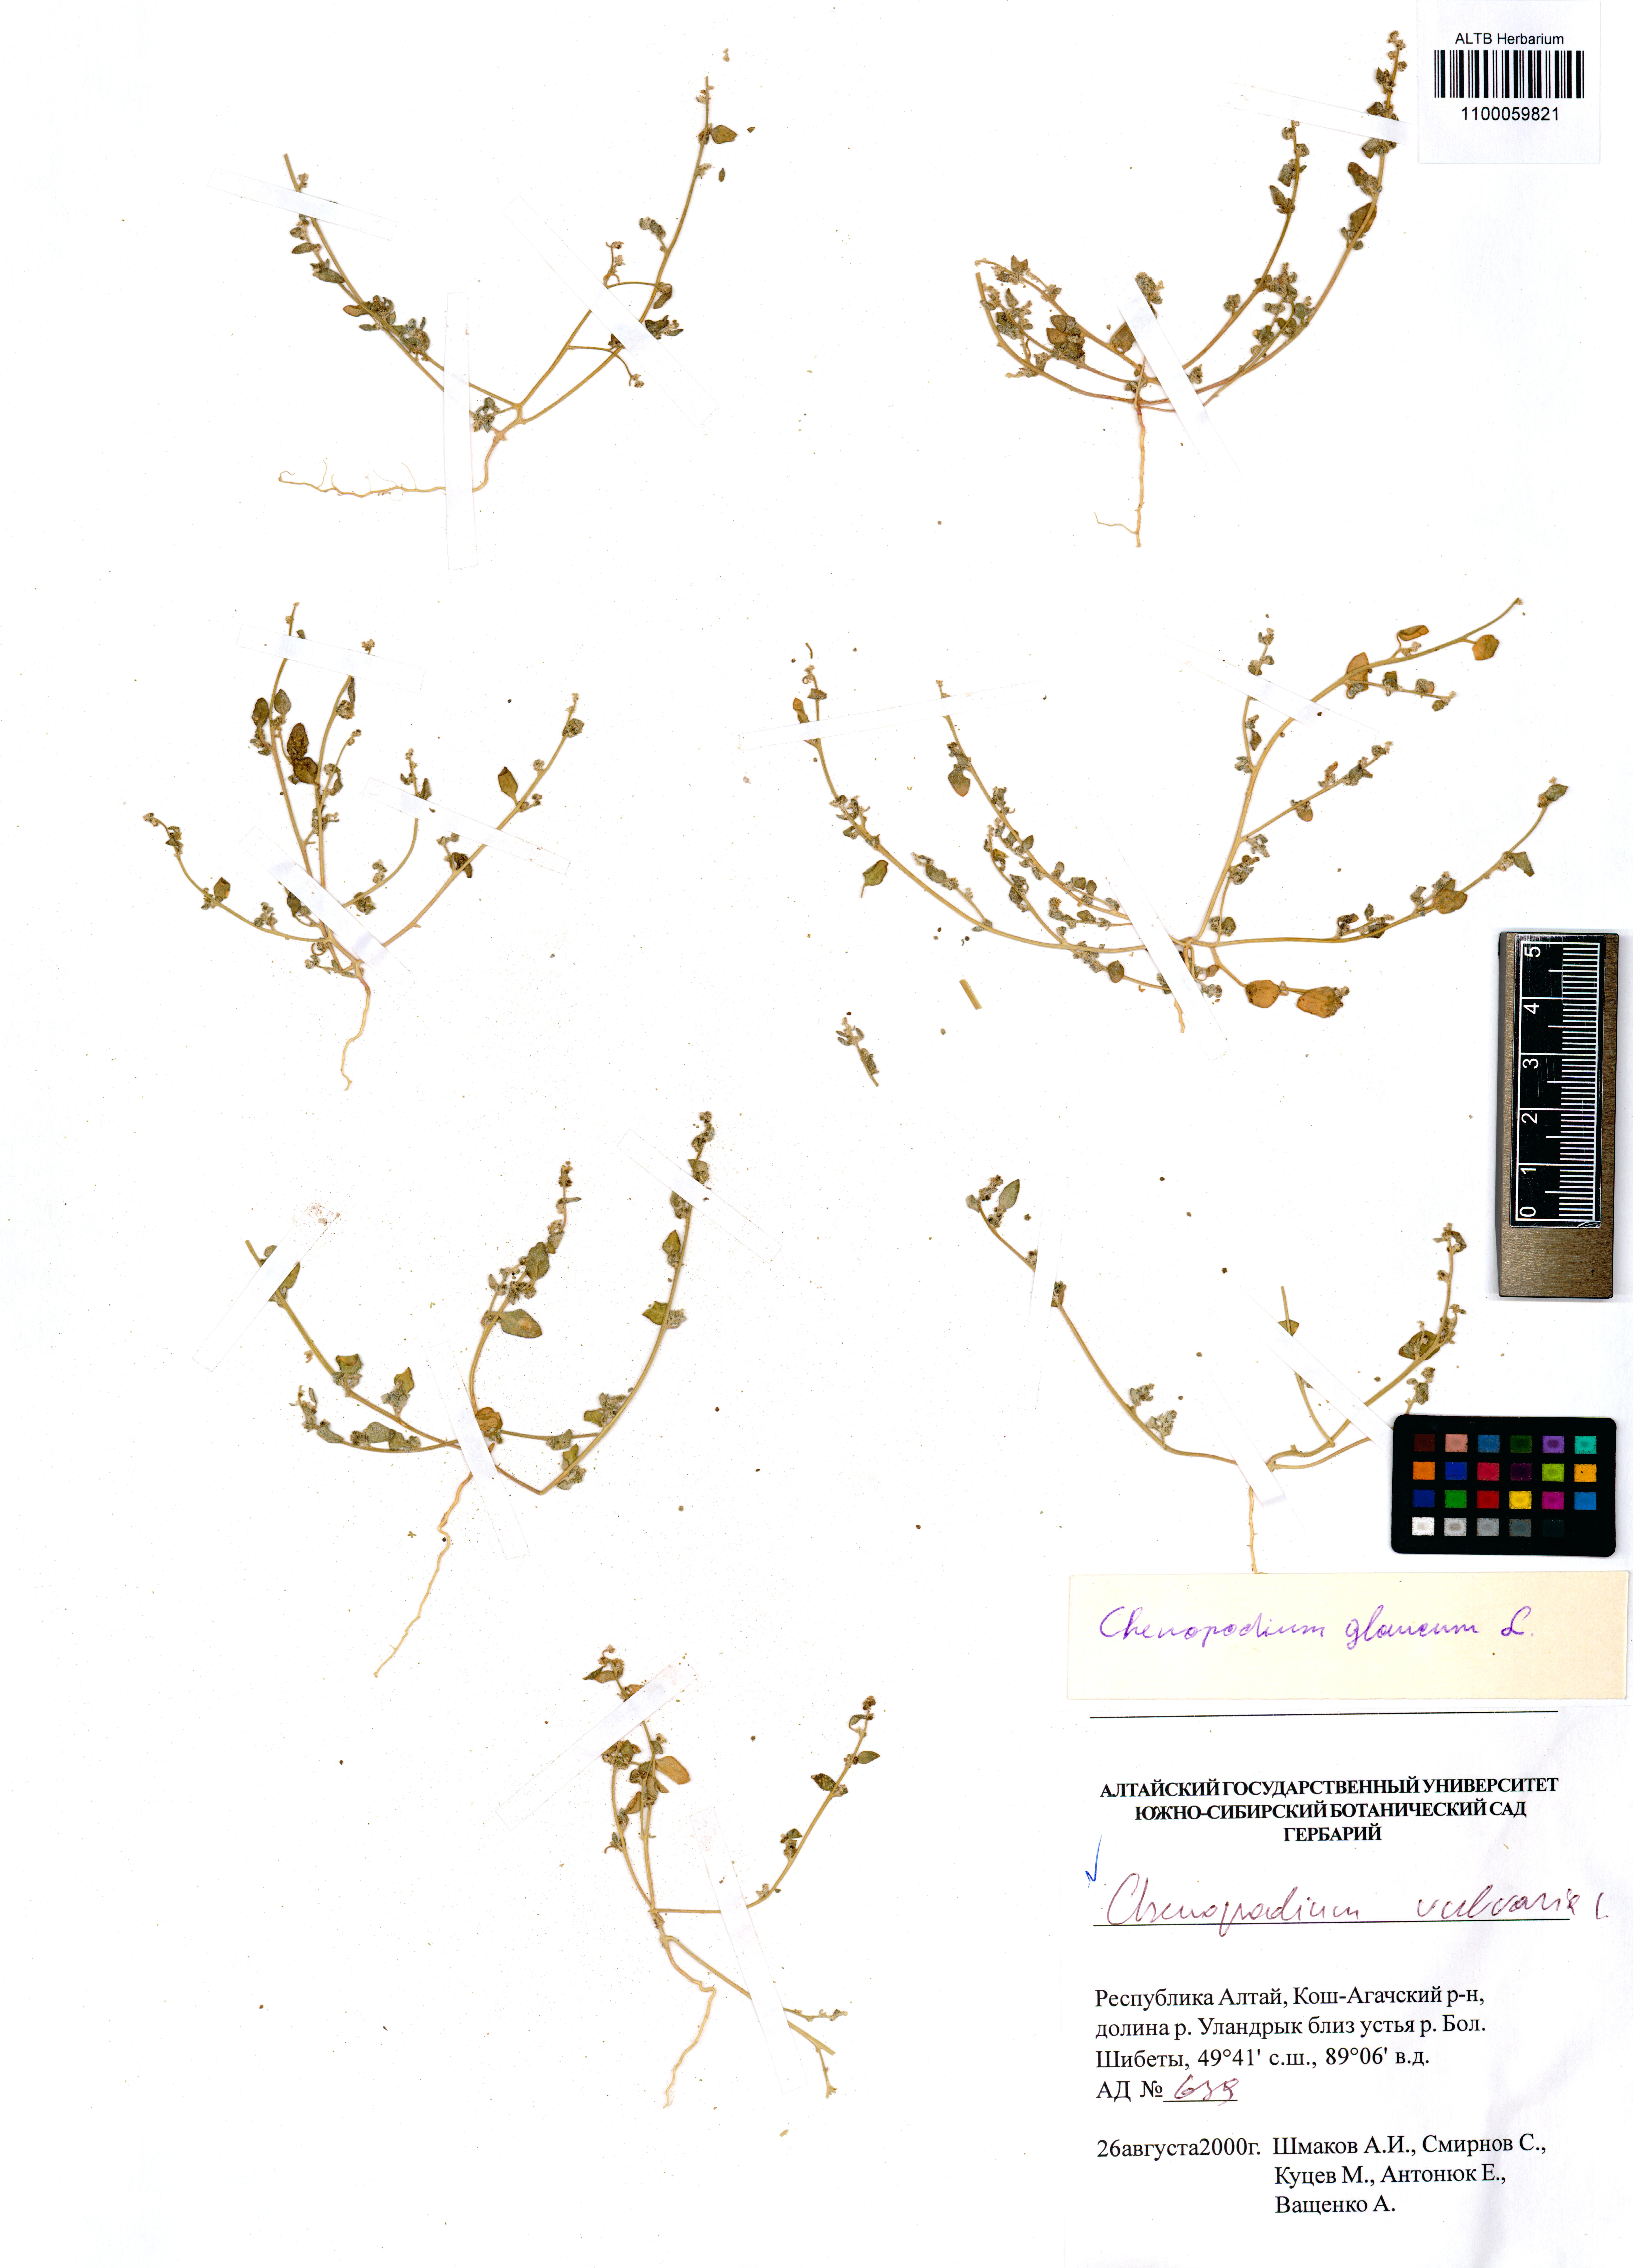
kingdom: Plantae
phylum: Tracheophyta
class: Magnoliopsida
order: Caryophyllales
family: Amaranthaceae
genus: Chenopodium
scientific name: Chenopodium vulvaria
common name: Stinking goosefoot
